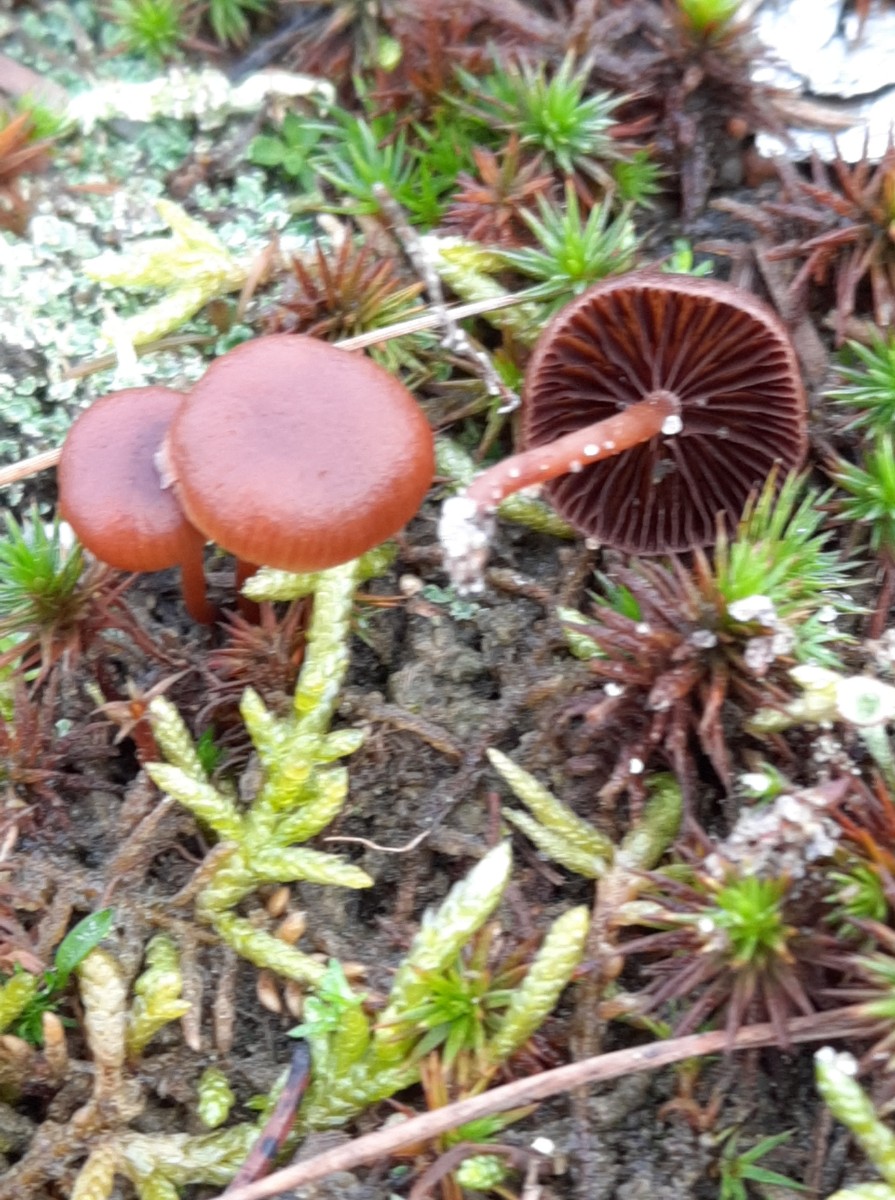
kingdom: Fungi
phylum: Basidiomycota
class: Agaricomycetes
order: Agaricales
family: Strophariaceae
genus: Deconica
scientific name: Deconica montana
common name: rødbrun stråhat
